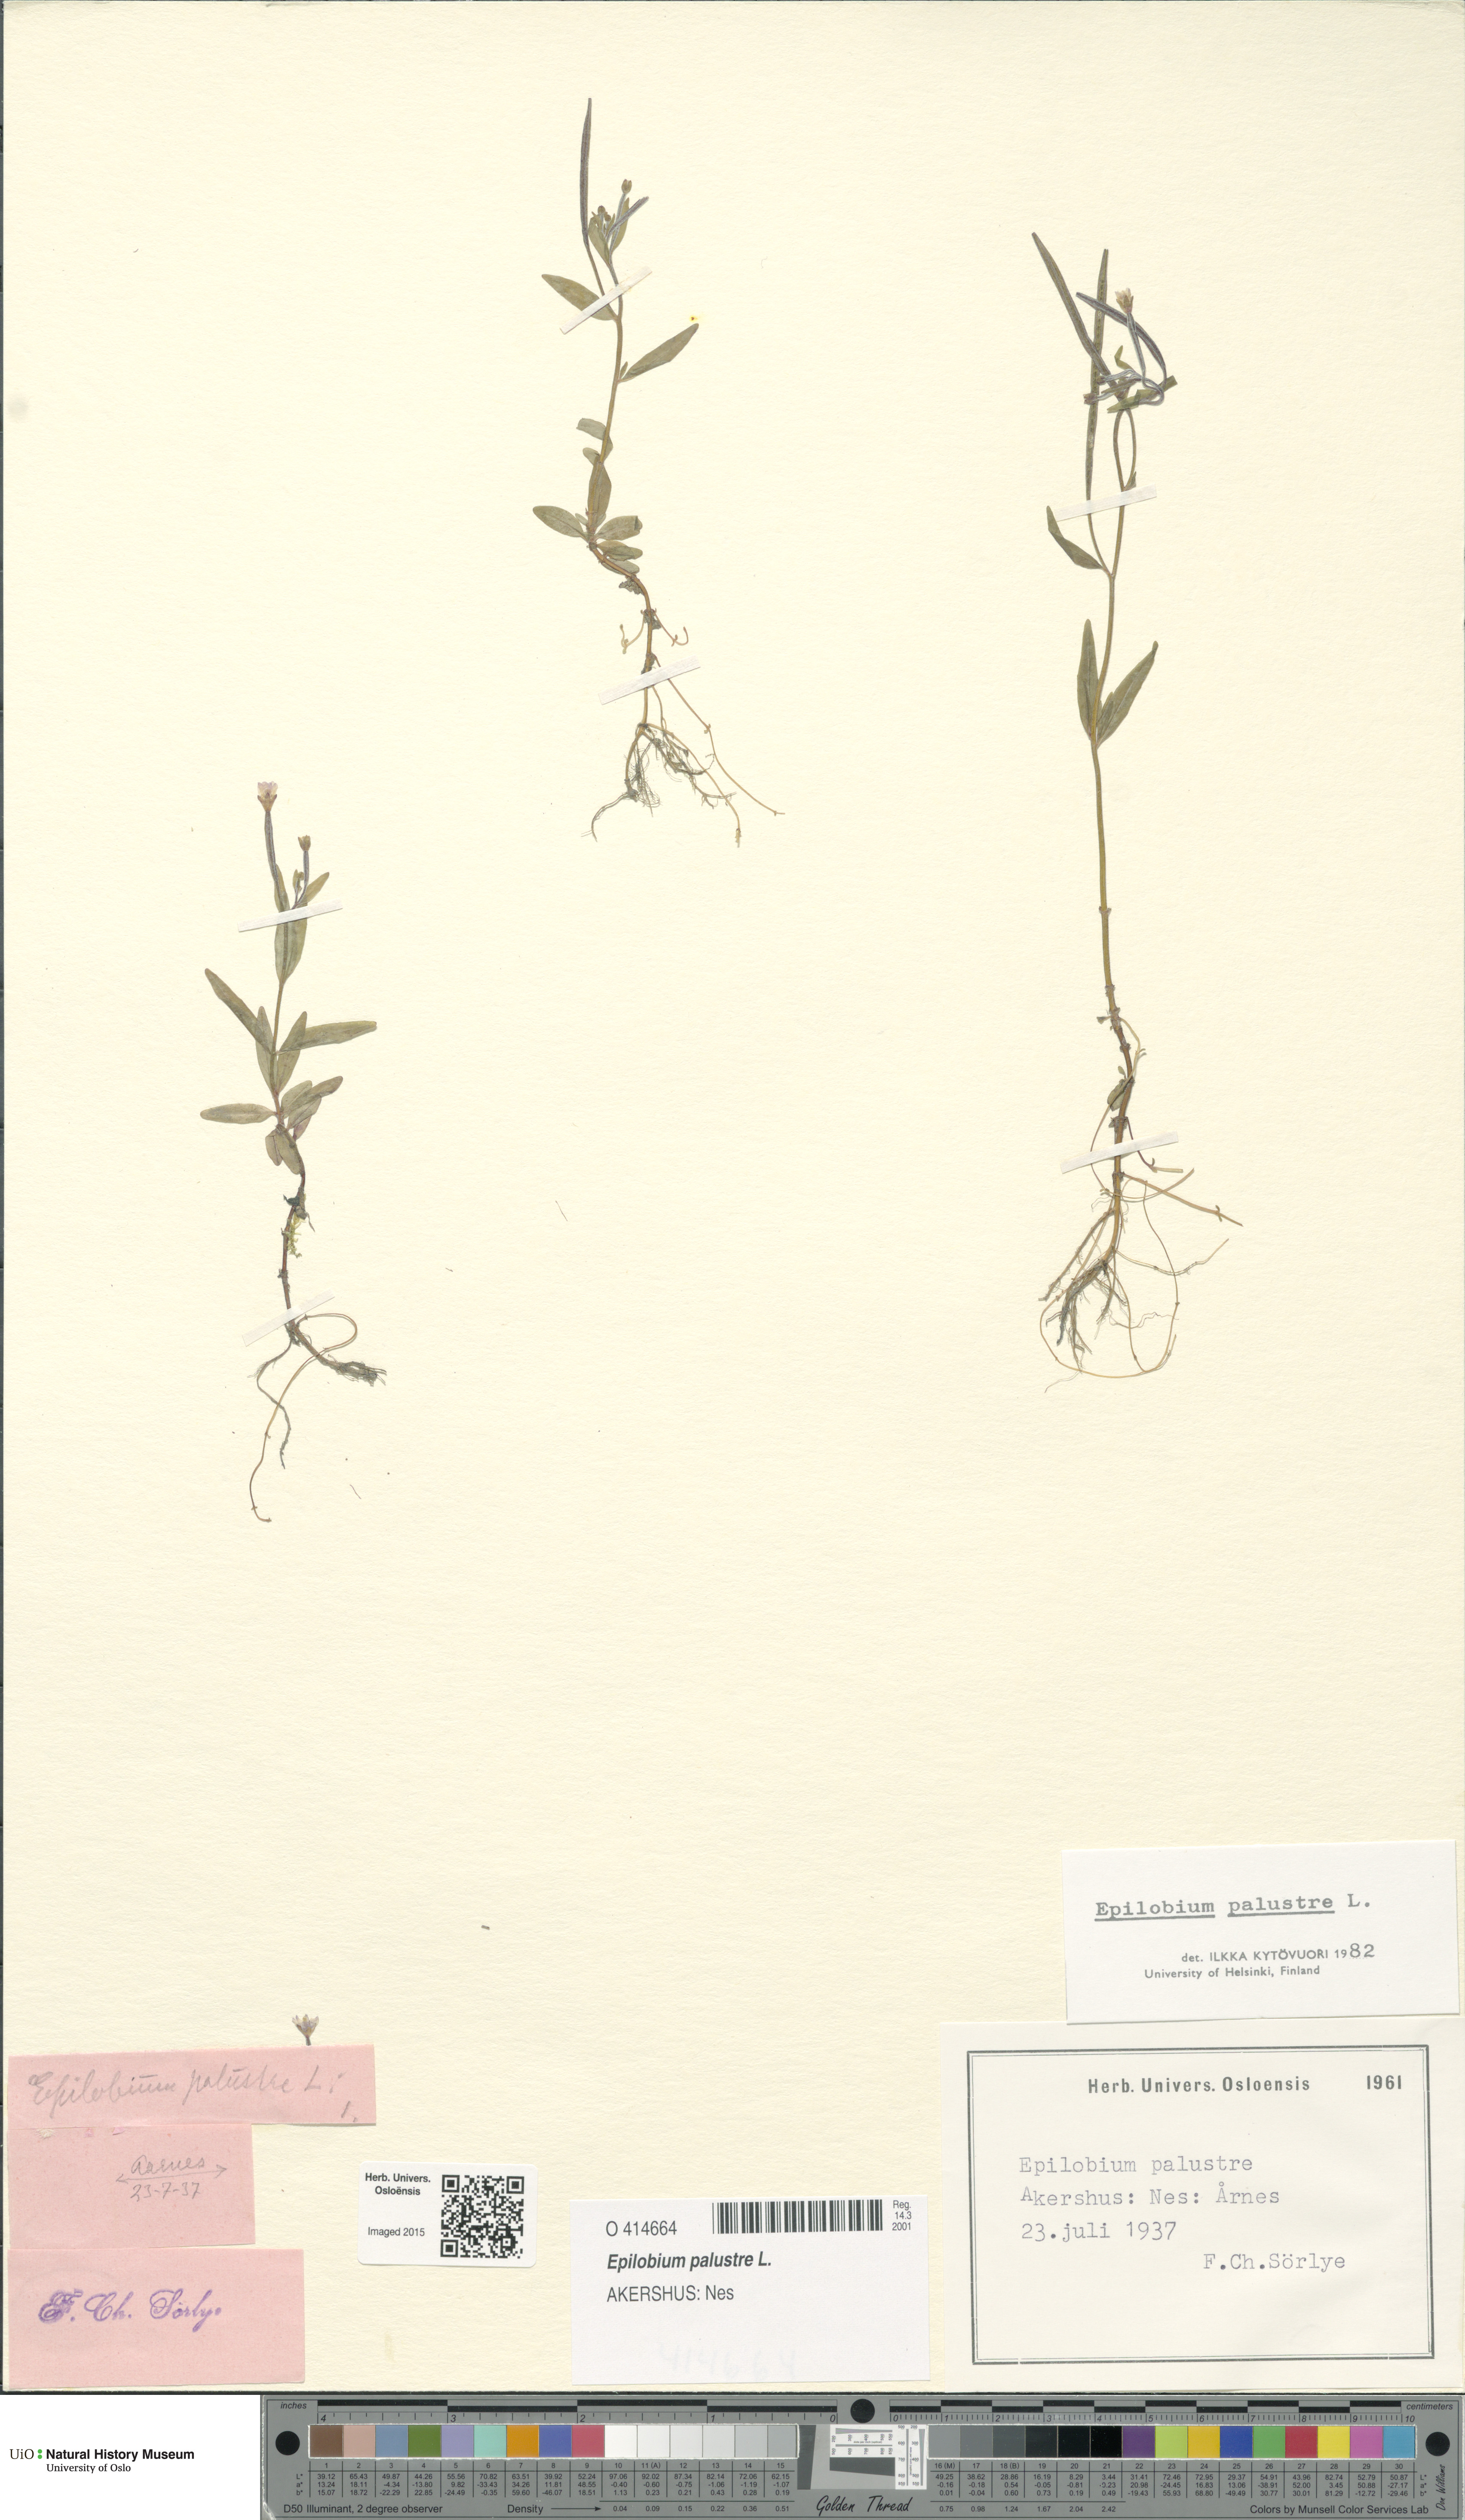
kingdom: Plantae
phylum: Tracheophyta
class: Magnoliopsida
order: Myrtales
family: Onagraceae
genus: Epilobium
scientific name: Epilobium palustre
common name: Marsh willowherb
